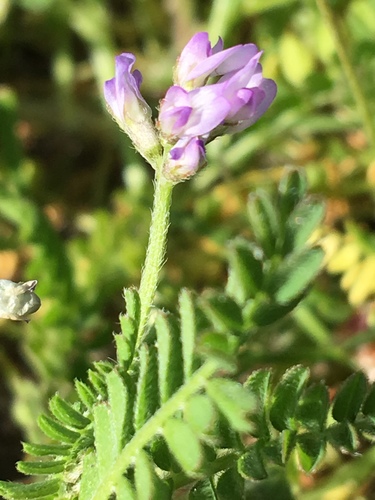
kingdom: Plantae
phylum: Tracheophyta
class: Magnoliopsida
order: Fabales
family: Fabaceae
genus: Ornithopus
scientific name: Ornithopus sativus
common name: Serradella
